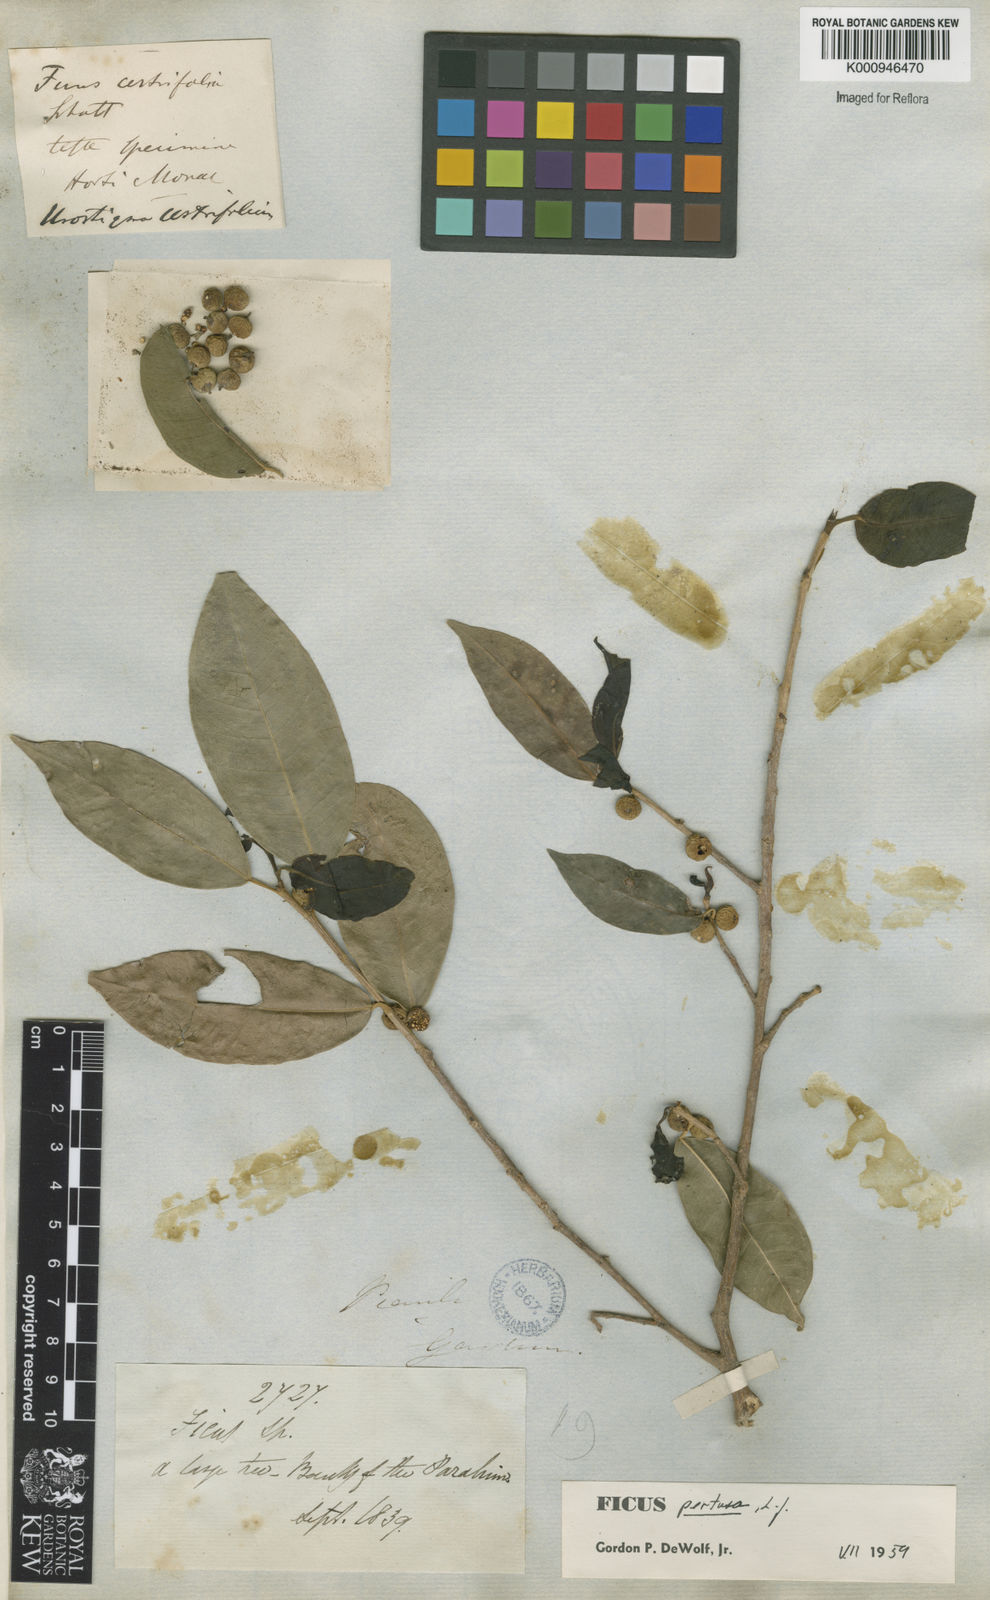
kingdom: Plantae
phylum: Tracheophyta
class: Magnoliopsida
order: Rosales
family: Moraceae
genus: Ficus
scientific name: Ficus pertusa
